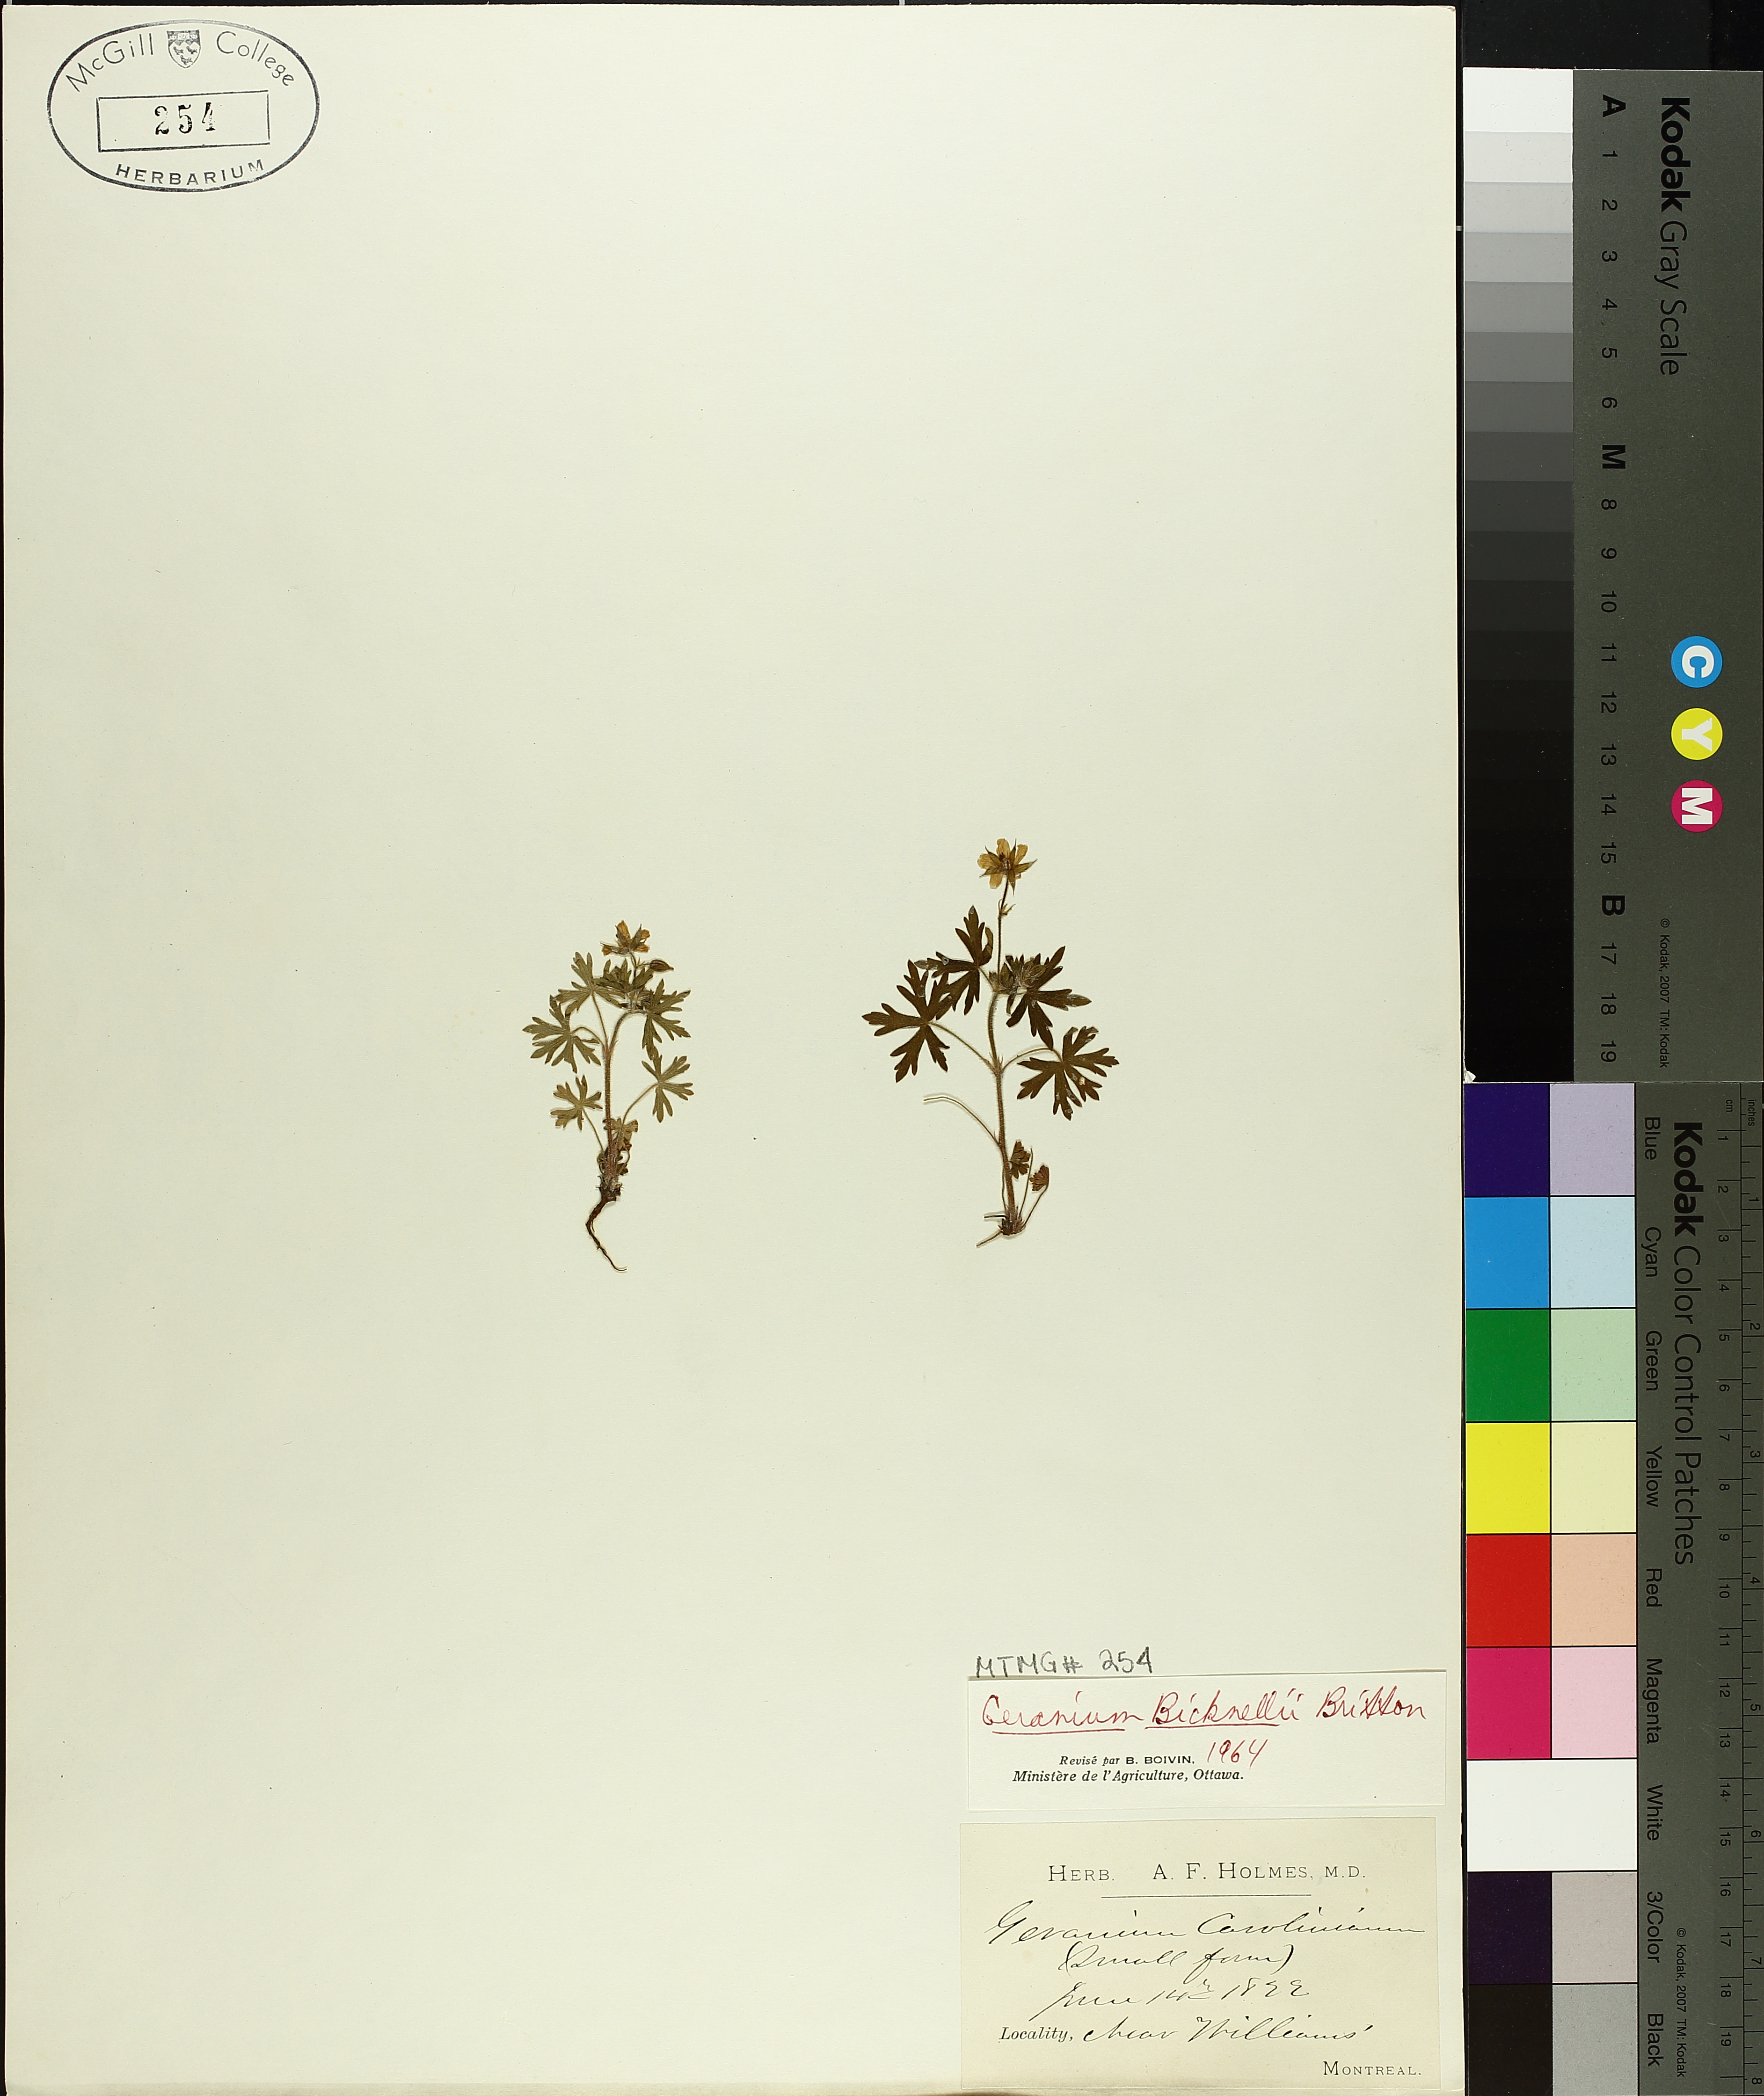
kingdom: Plantae
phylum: Tracheophyta
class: Magnoliopsida
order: Geraniales
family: Geraniaceae
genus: Geranium
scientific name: Geranium bicknellii
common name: Bicknell's cranesbill
